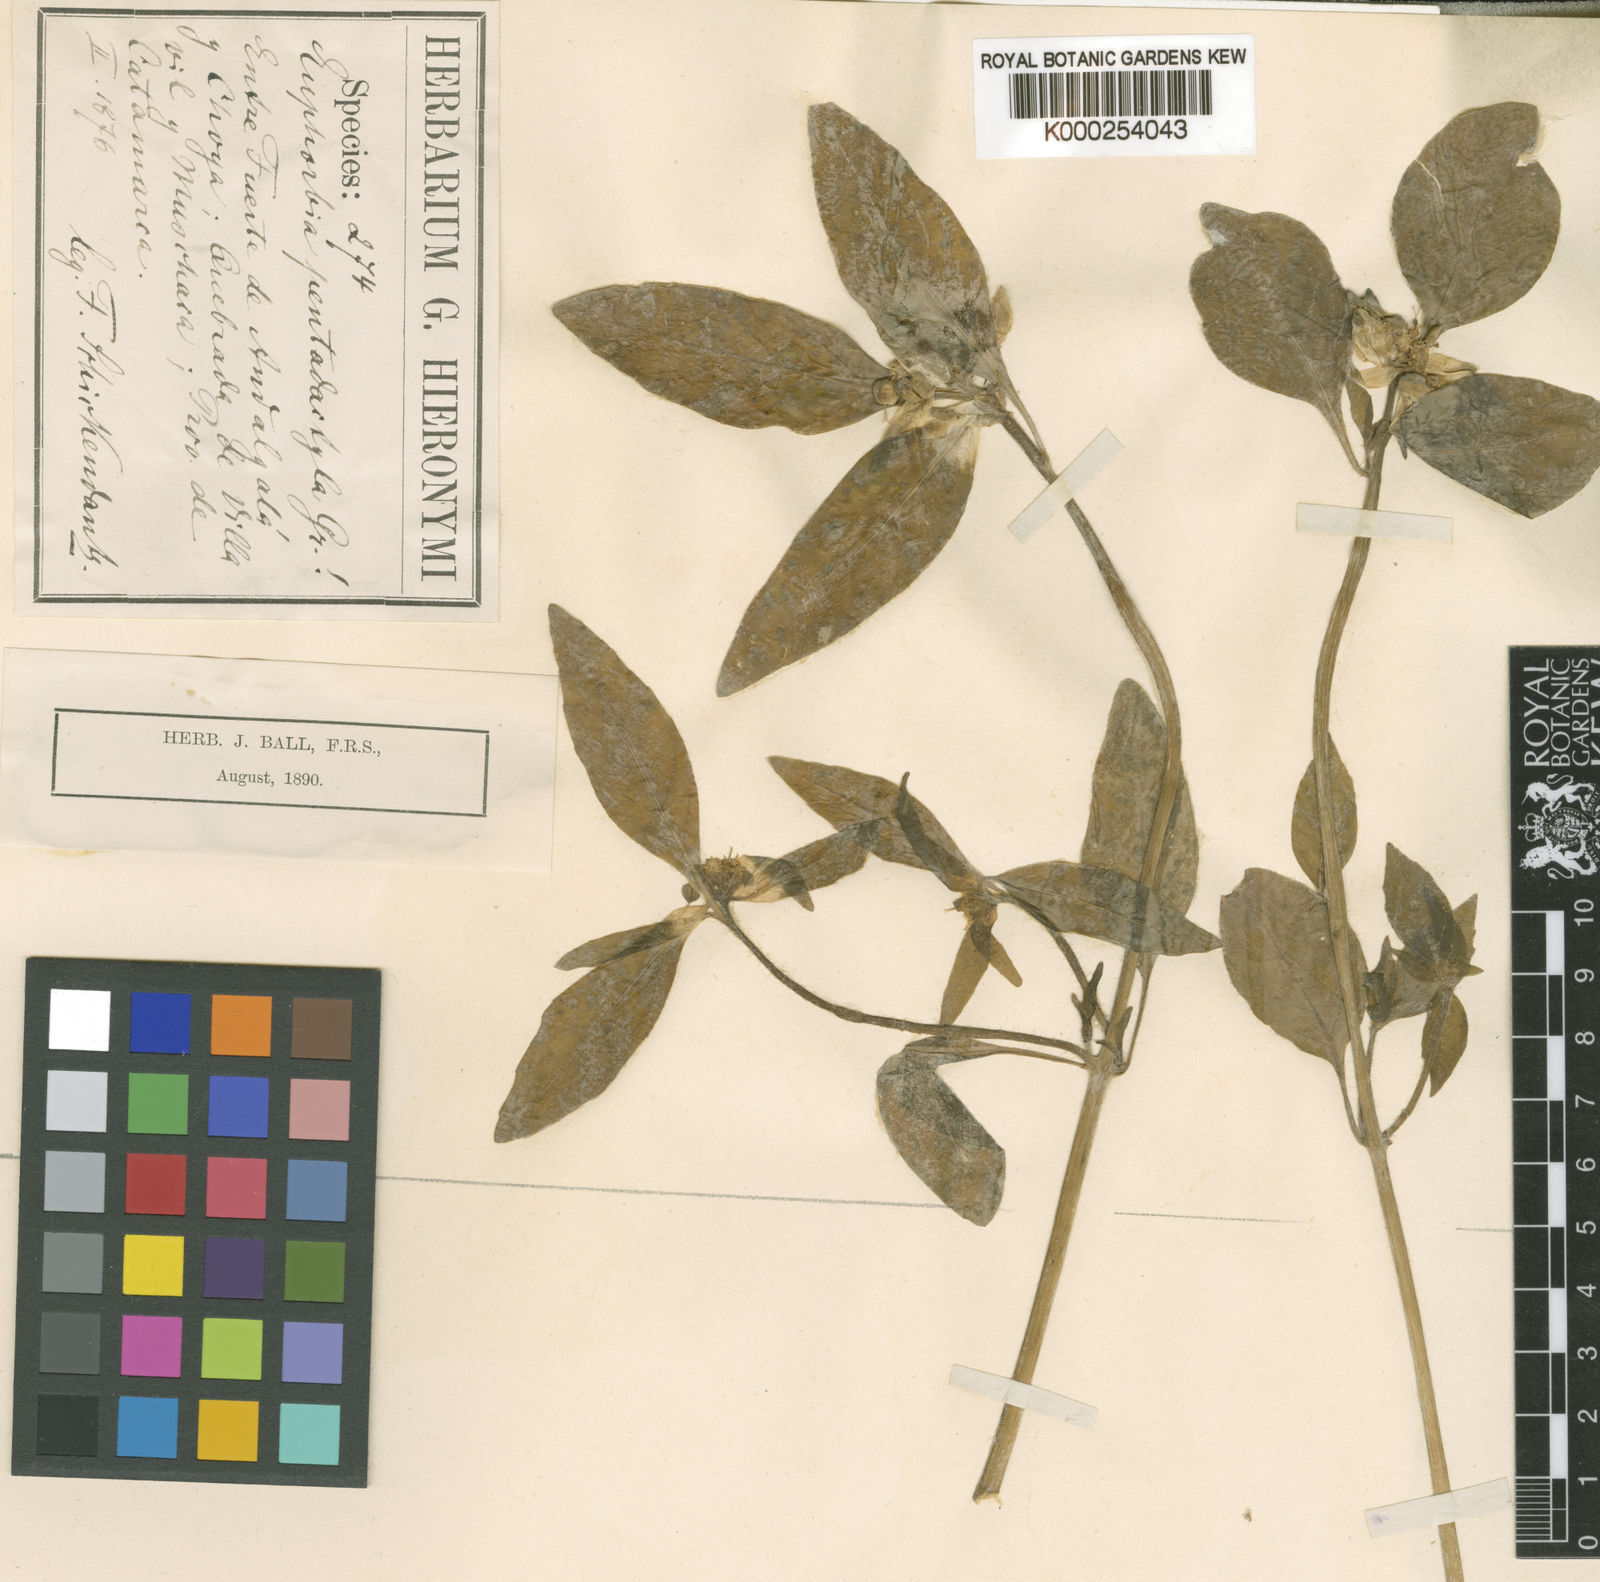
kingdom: Plantae
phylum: Tracheophyta
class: Magnoliopsida
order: Malpighiales
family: Euphorbiaceae
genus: Euphorbia
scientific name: Euphorbia pentadactyla
